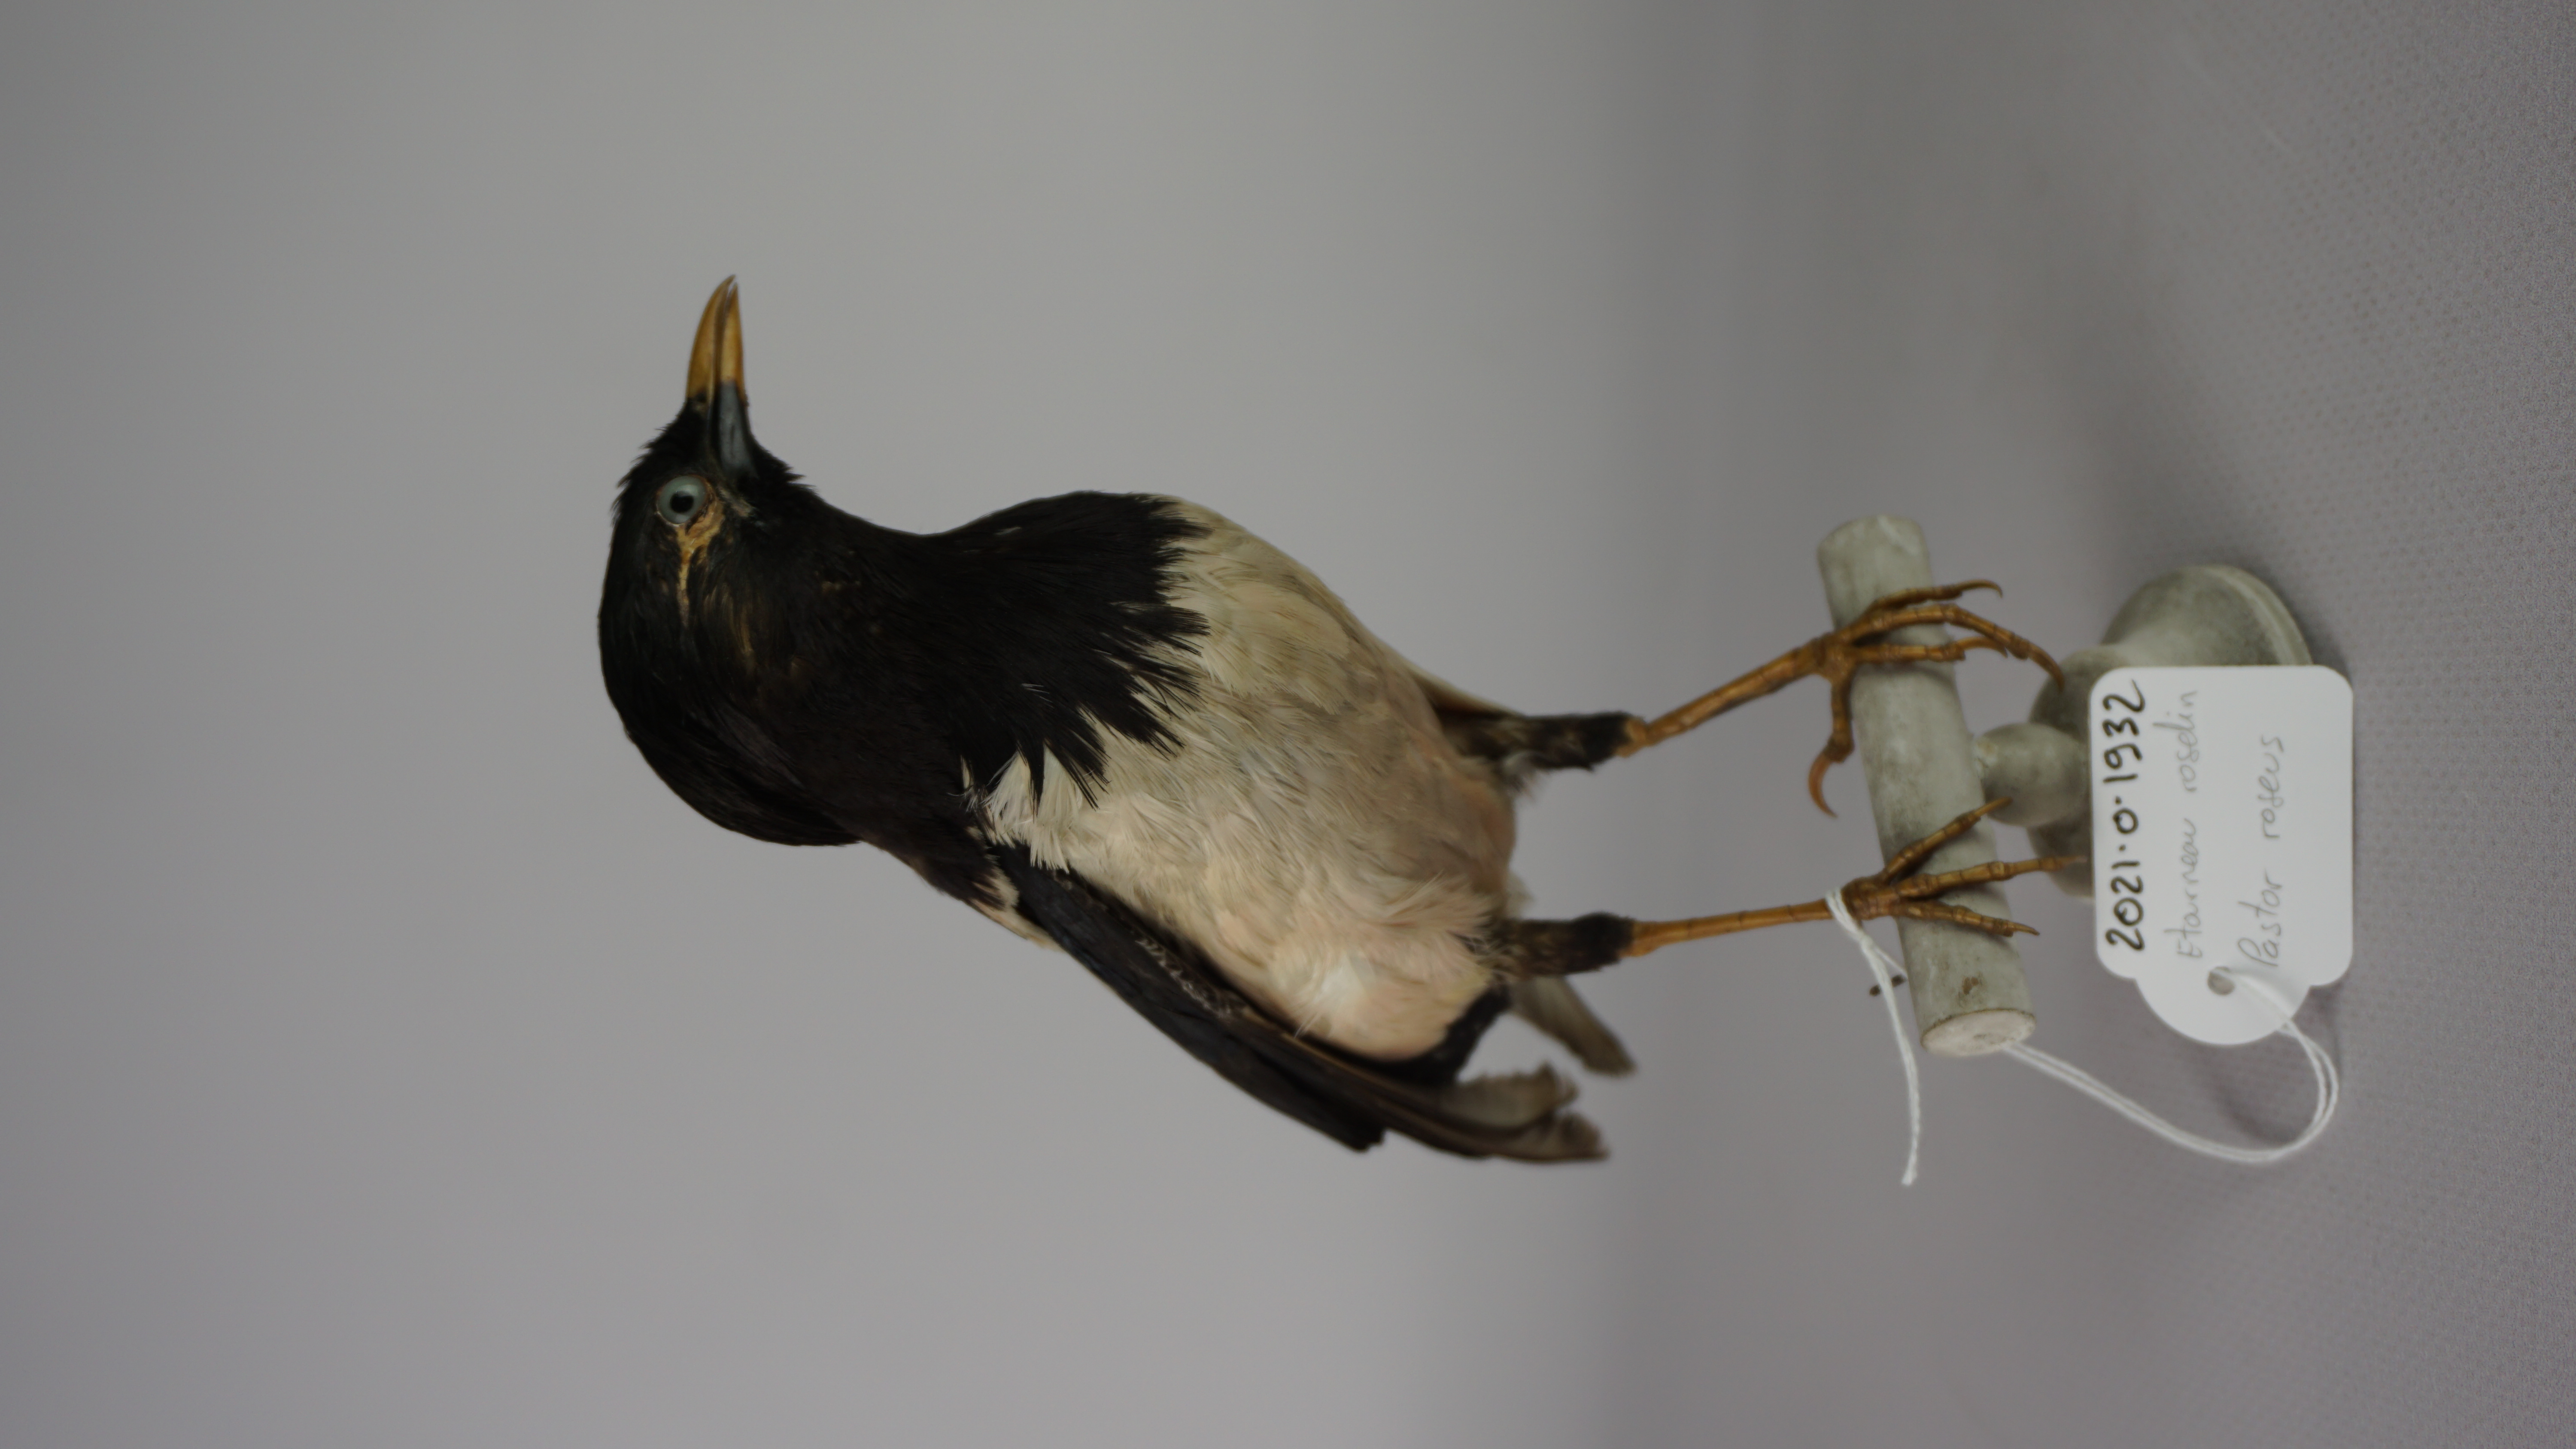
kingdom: Animalia
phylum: Chordata
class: Aves
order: Passeriformes
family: Sturnidae
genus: Pastor
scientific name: Pastor roseus
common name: Rosy starling
